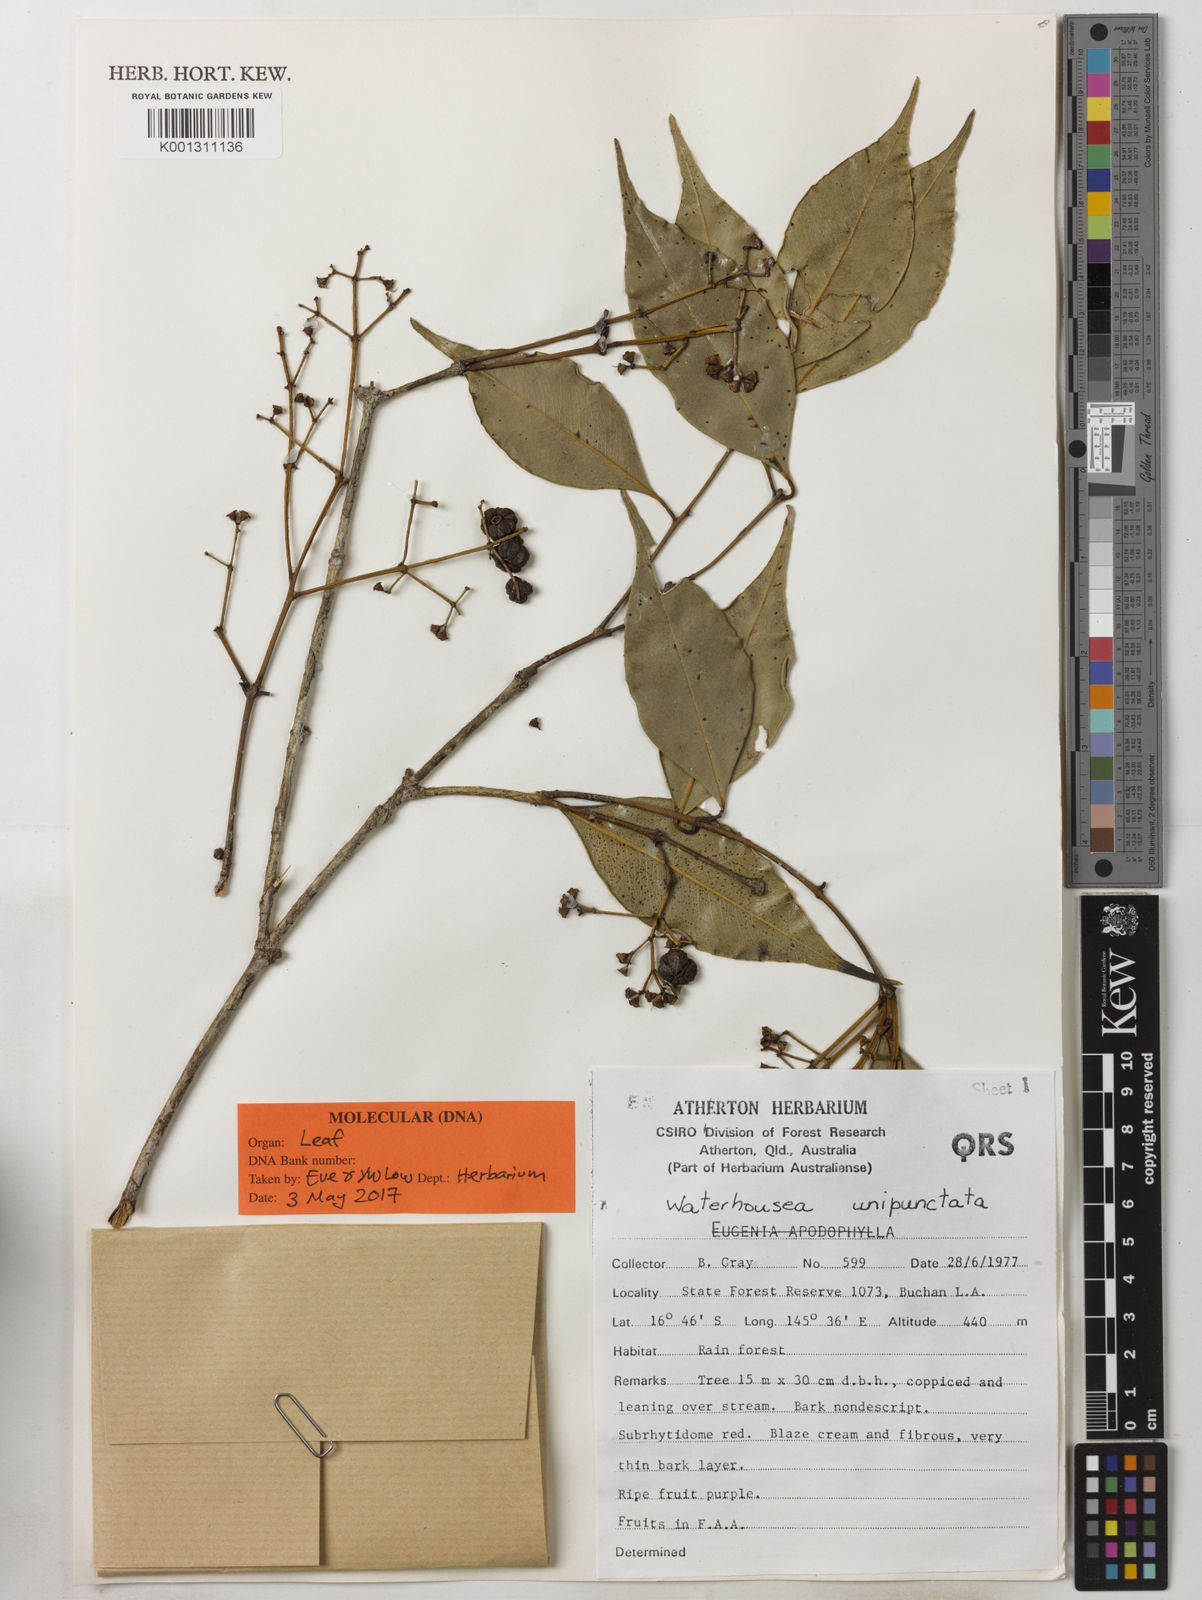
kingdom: Plantae
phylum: Tracheophyta
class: Magnoliopsida
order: Myrtales
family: Myrtaceae
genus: Syzygium
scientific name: Syzygium unipunctatum
